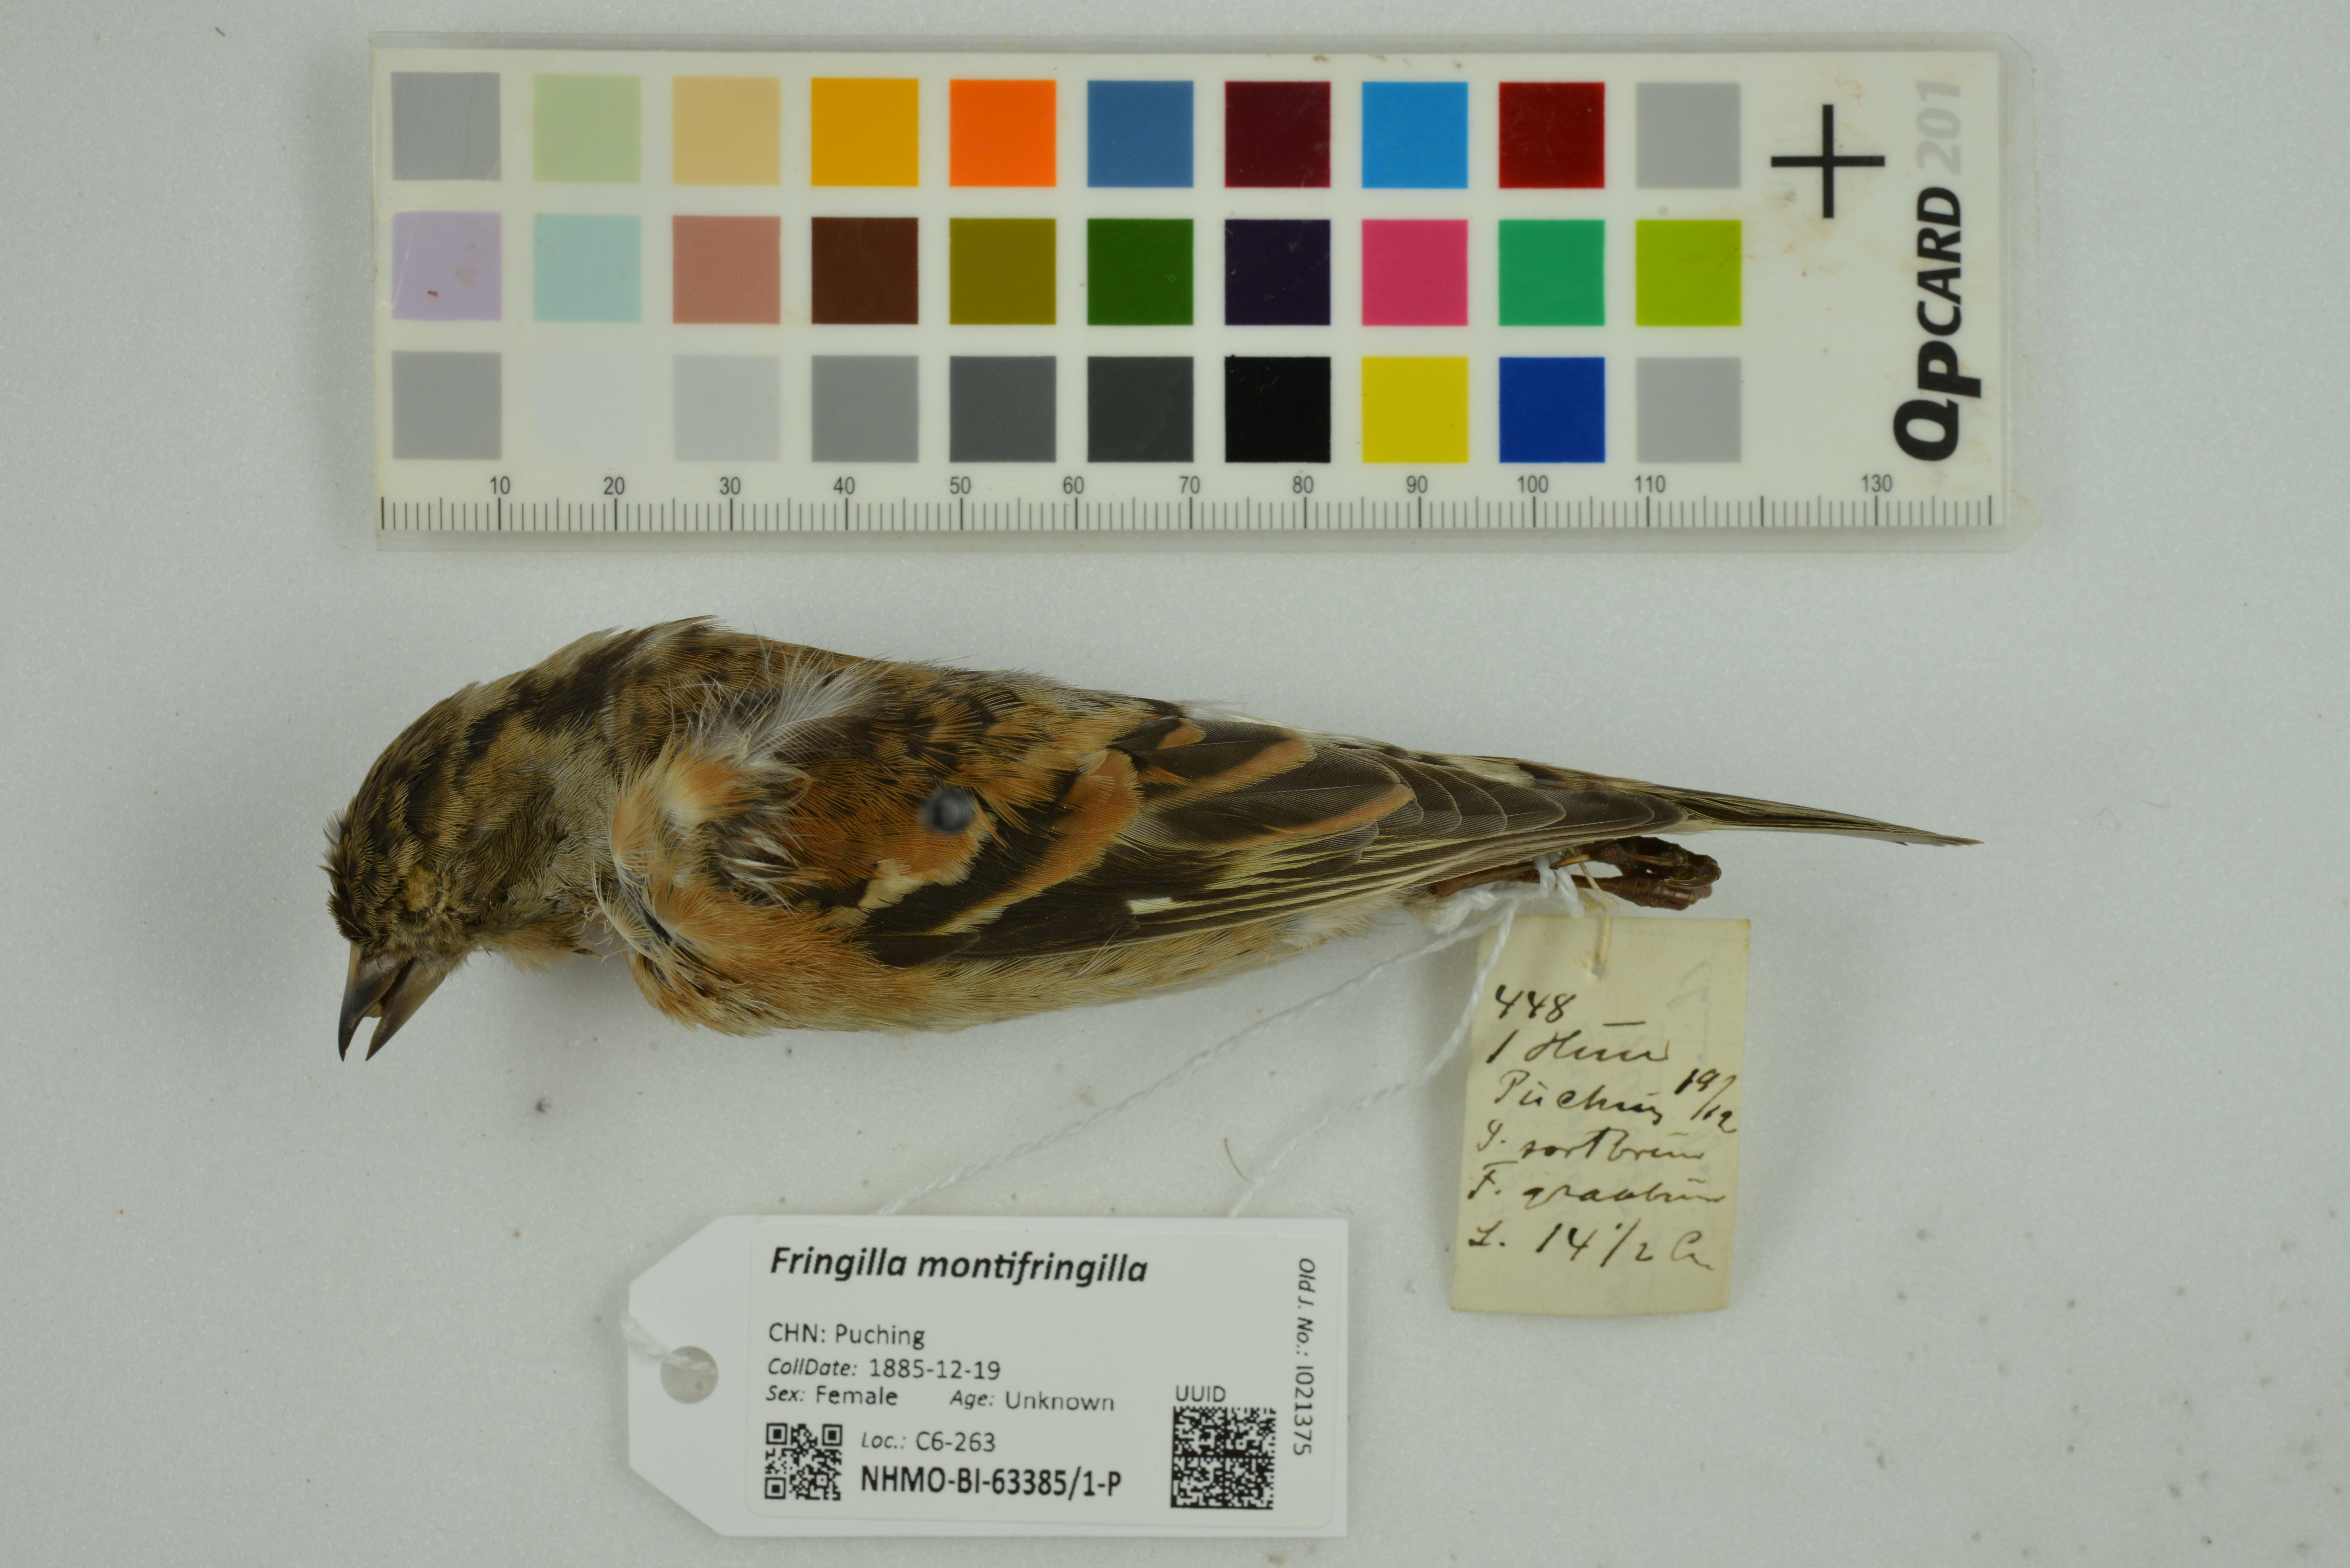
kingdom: Animalia
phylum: Chordata
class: Aves
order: Passeriformes
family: Fringillidae
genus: Fringilla
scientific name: Fringilla montifringilla
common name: Brambling
